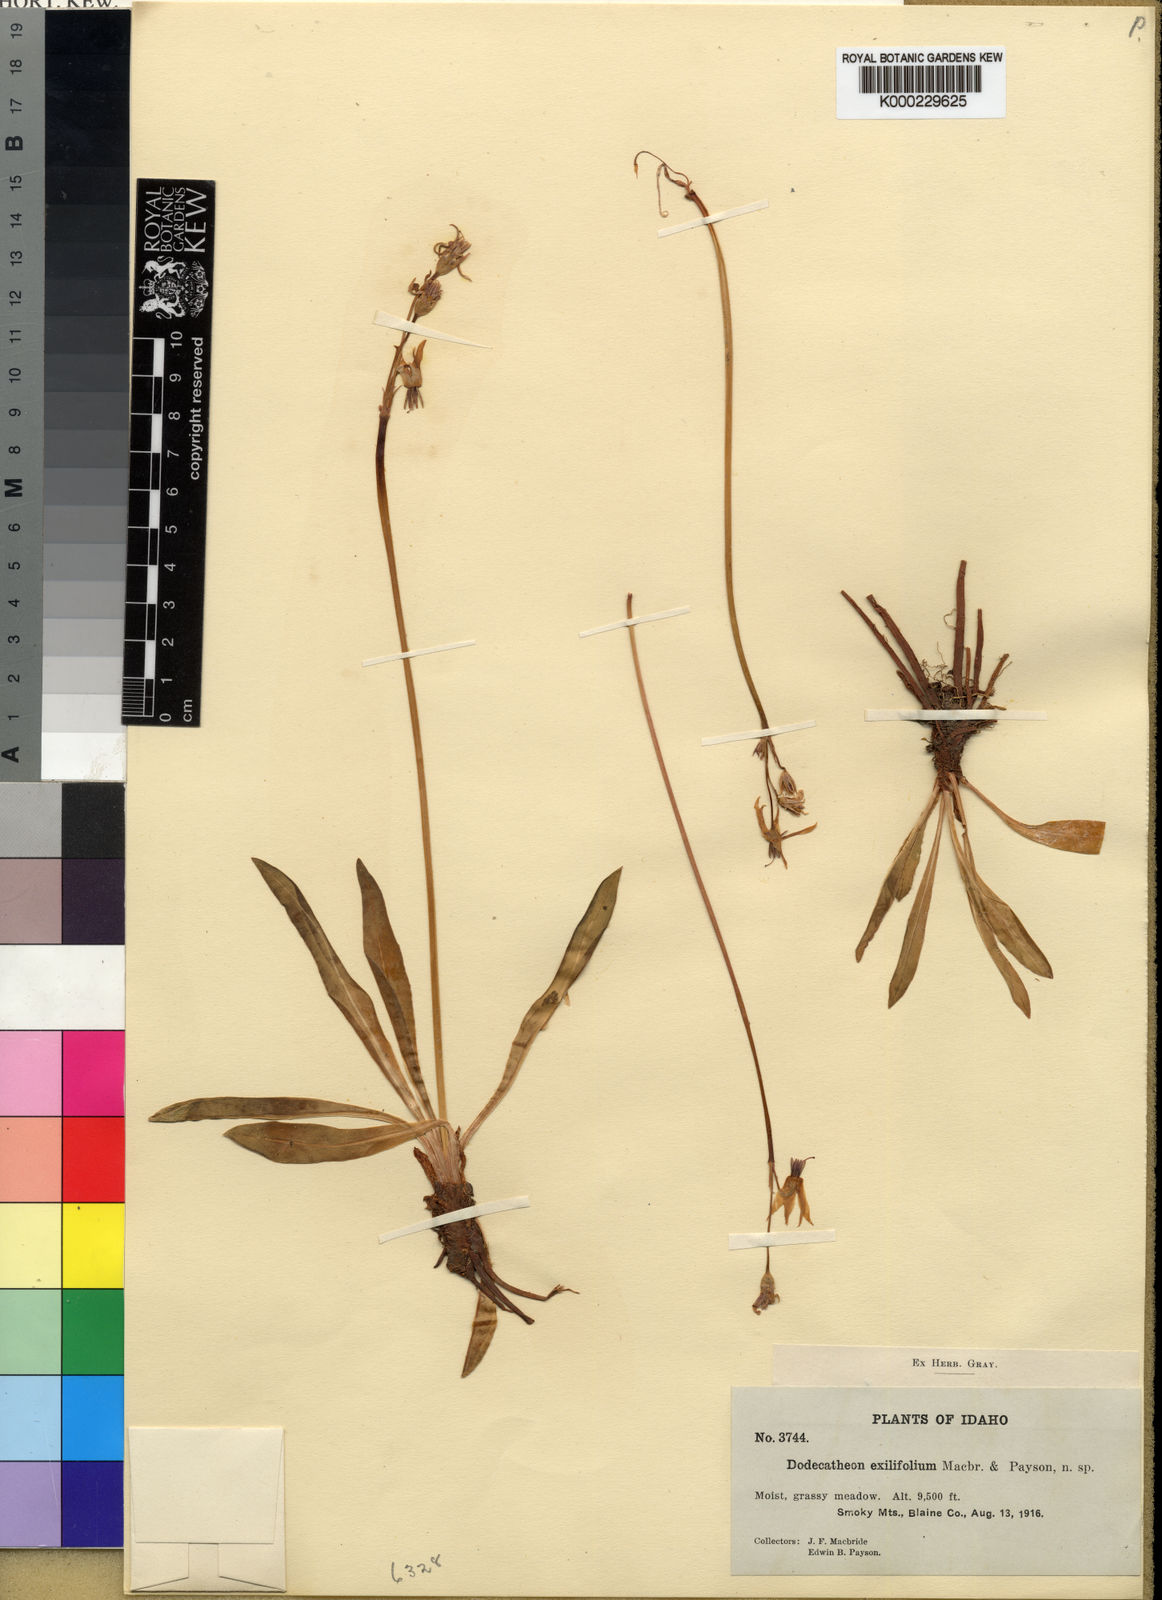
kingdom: Plantae
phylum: Tracheophyta
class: Magnoliopsida
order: Ericales
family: Primulaceae
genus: Dodecatheon
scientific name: Dodecatheon pulchellum
